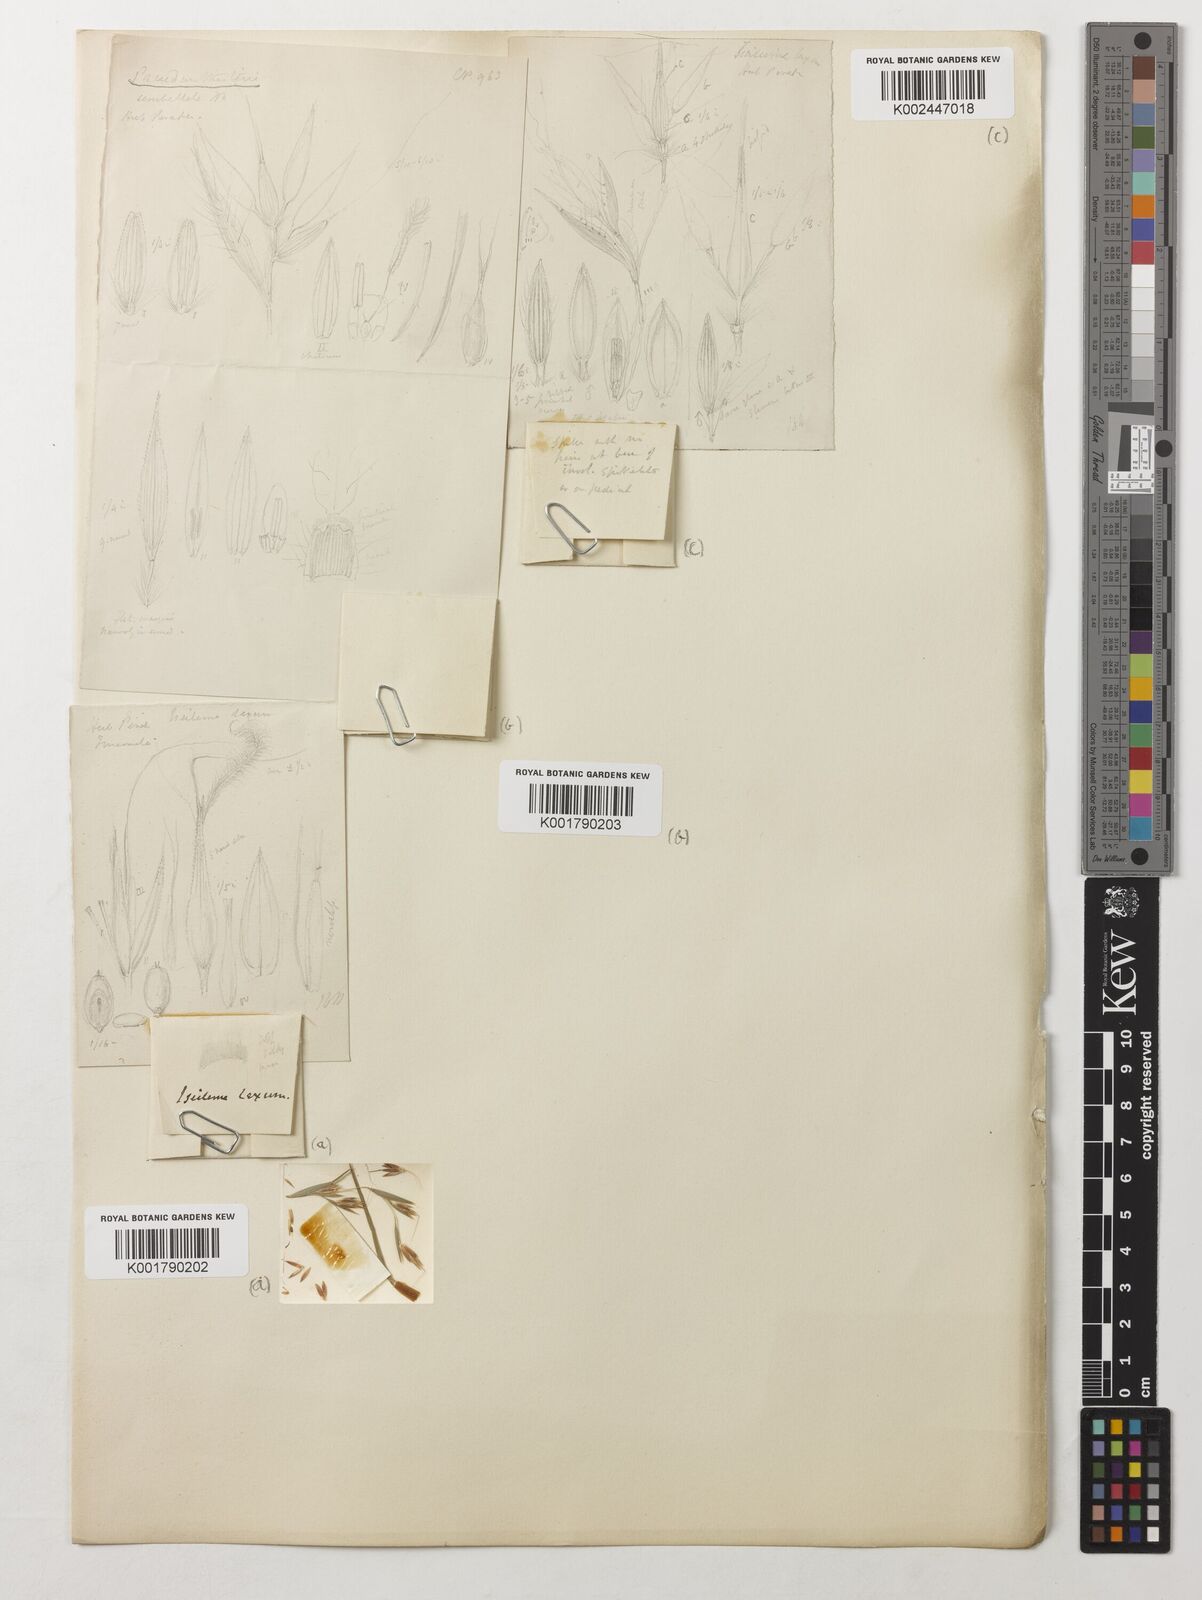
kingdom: Plantae
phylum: Tracheophyta
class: Liliopsida
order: Poales
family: Poaceae
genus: Iseilema
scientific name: Iseilema prostratum
